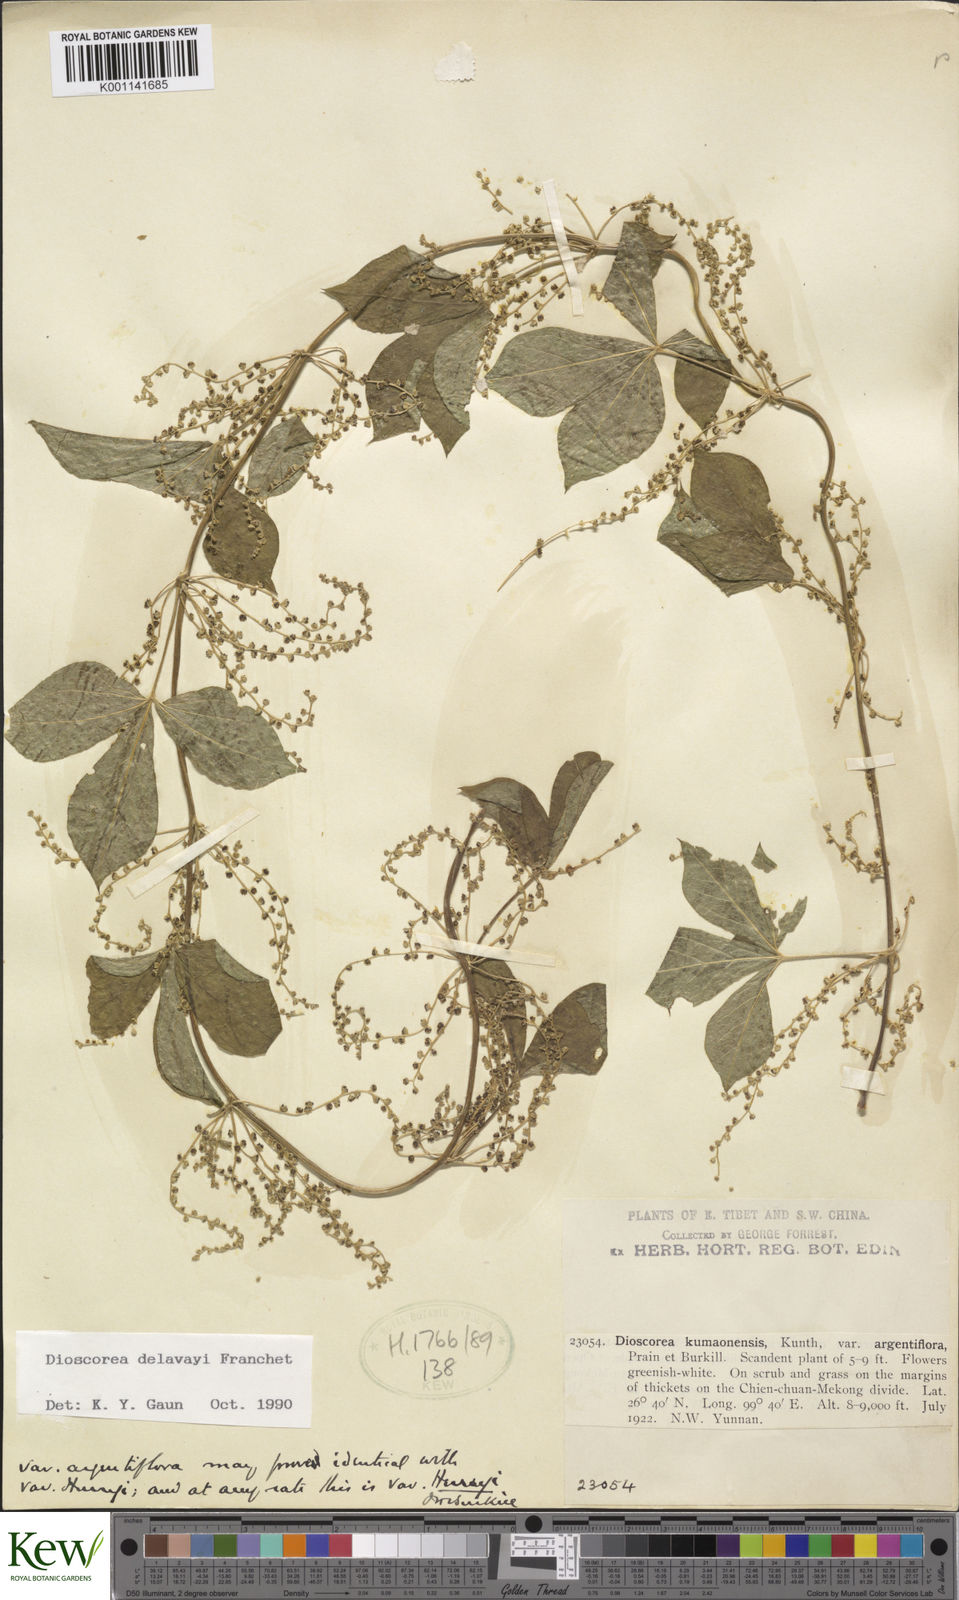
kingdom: Plantae
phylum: Tracheophyta
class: Liliopsida
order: Dioscoreales
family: Dioscoreaceae
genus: Dioscorea
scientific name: Dioscorea kamoonensis
